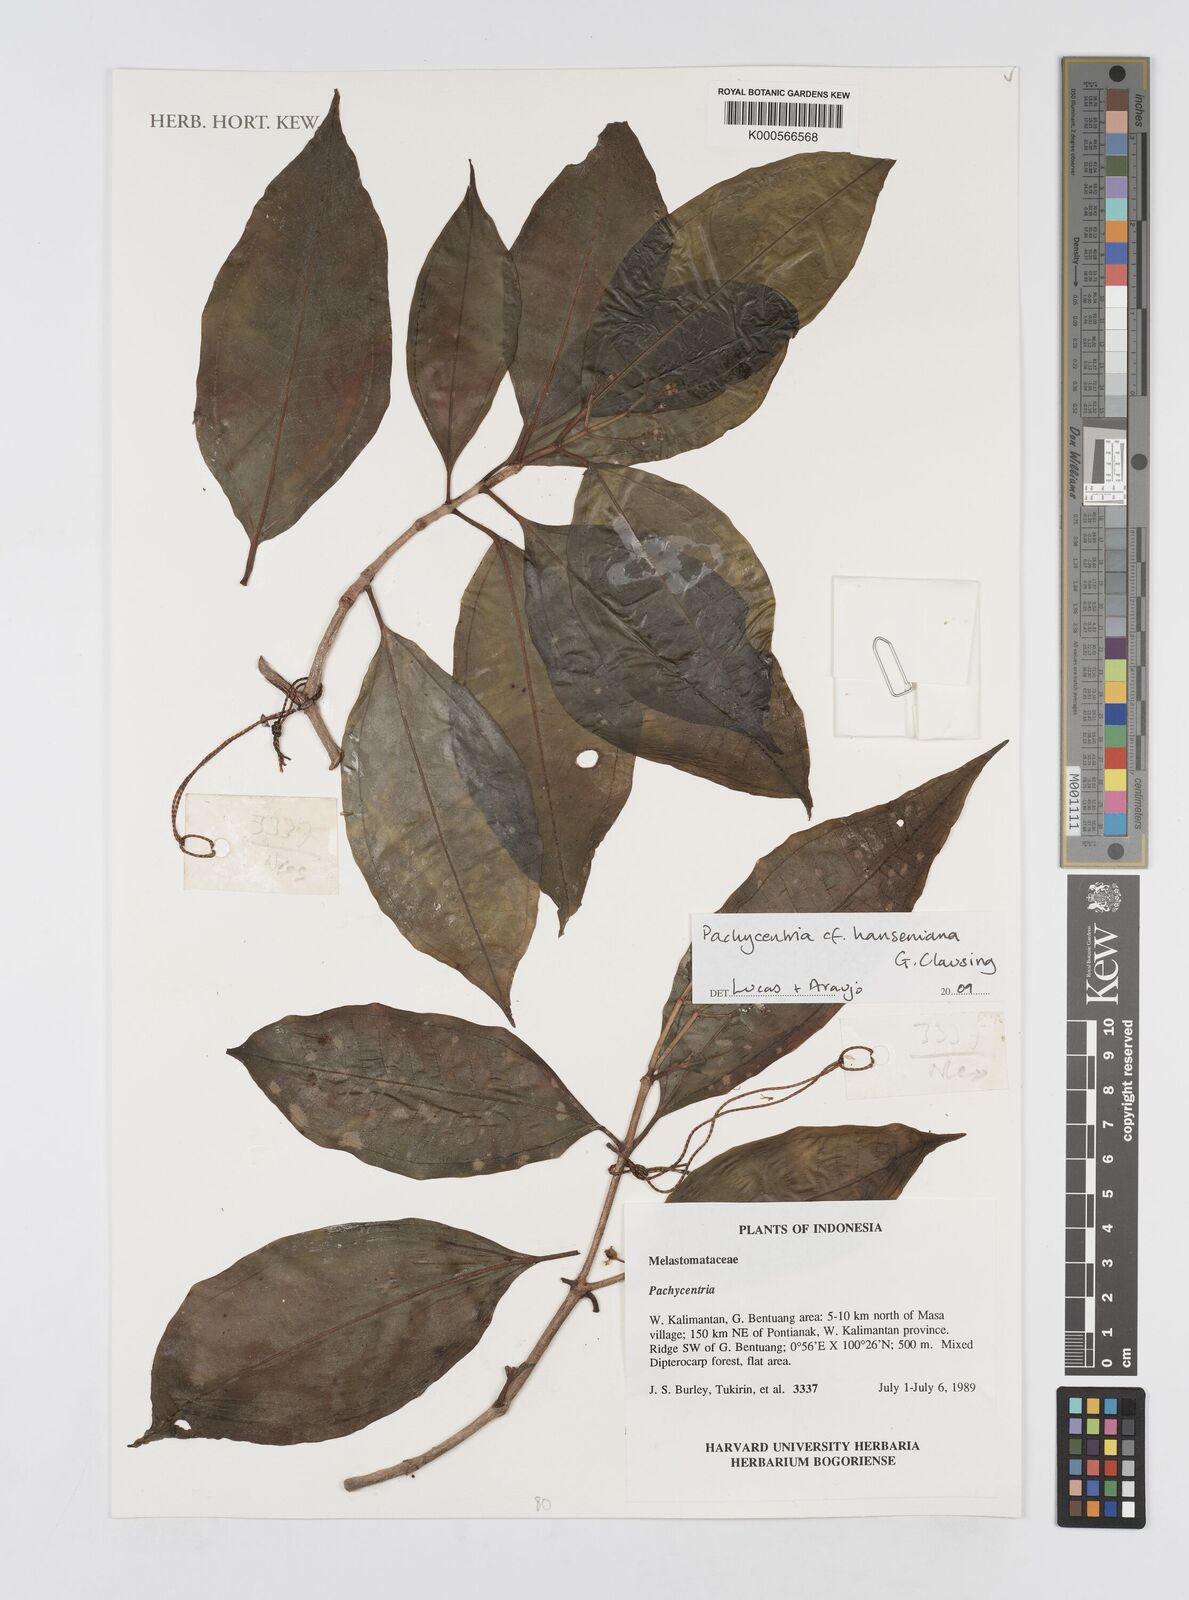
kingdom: Plantae
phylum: Tracheophyta
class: Magnoliopsida
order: Myrtales
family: Melastomataceae
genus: Pachycentria
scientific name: Pachycentria hanseniana
